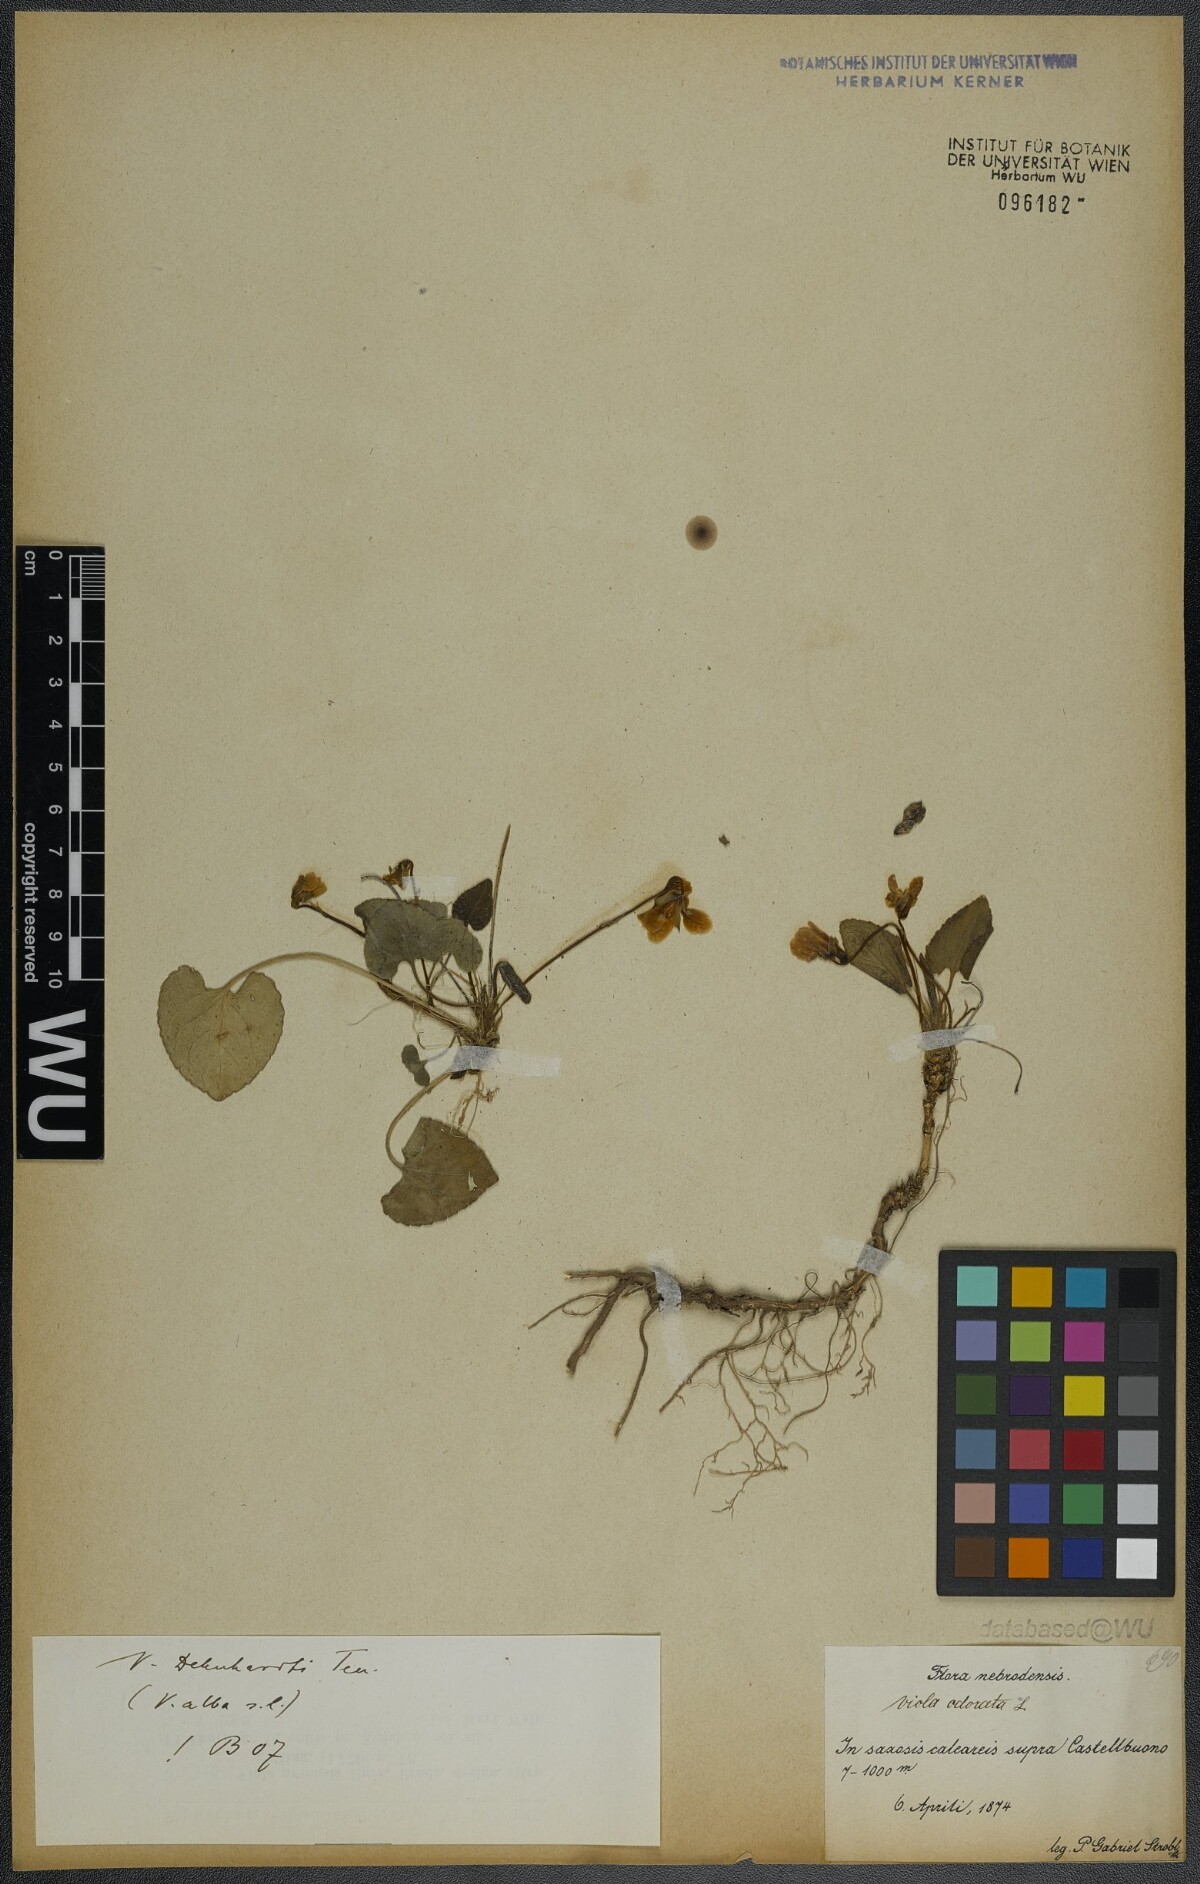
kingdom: Plantae
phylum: Tracheophyta
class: Magnoliopsida
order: Malpighiales
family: Violaceae
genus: Viola
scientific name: Viola alba
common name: White violet
